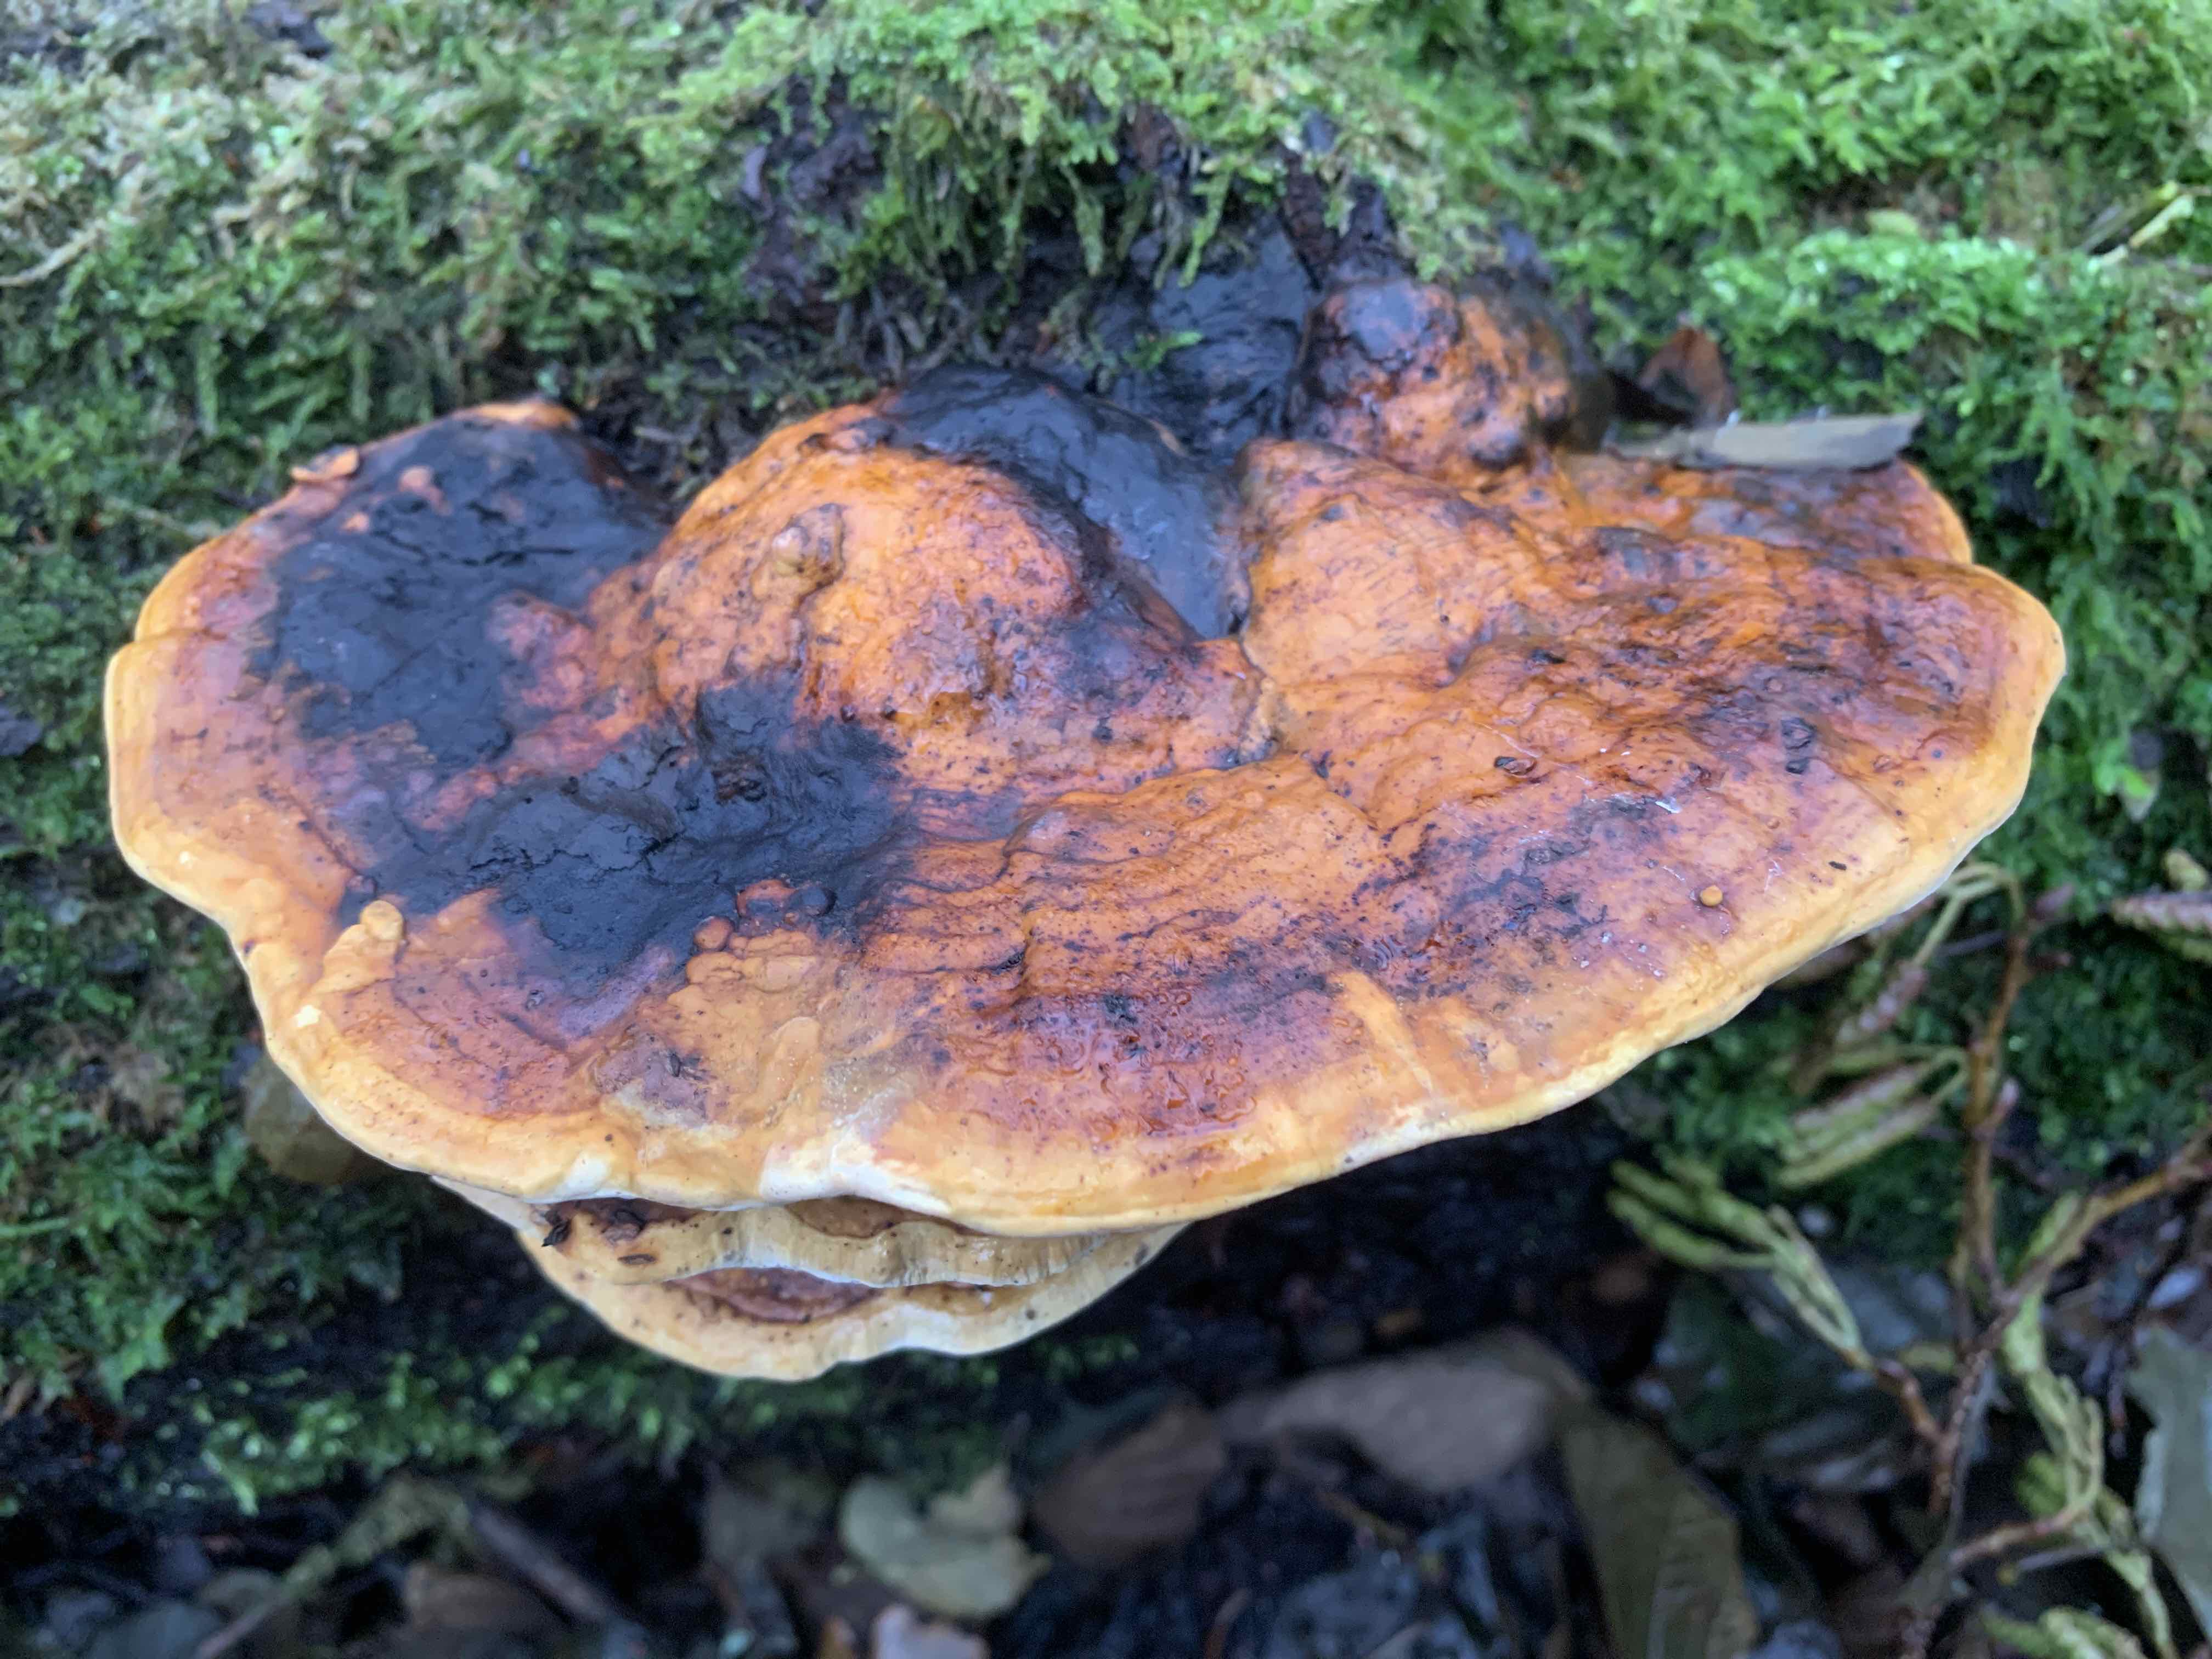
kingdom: Fungi
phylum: Basidiomycota
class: Agaricomycetes
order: Polyporales
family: Fomitopsidaceae
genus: Fomitopsis
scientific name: Fomitopsis pinicola
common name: randbæltet hovporesvamp
